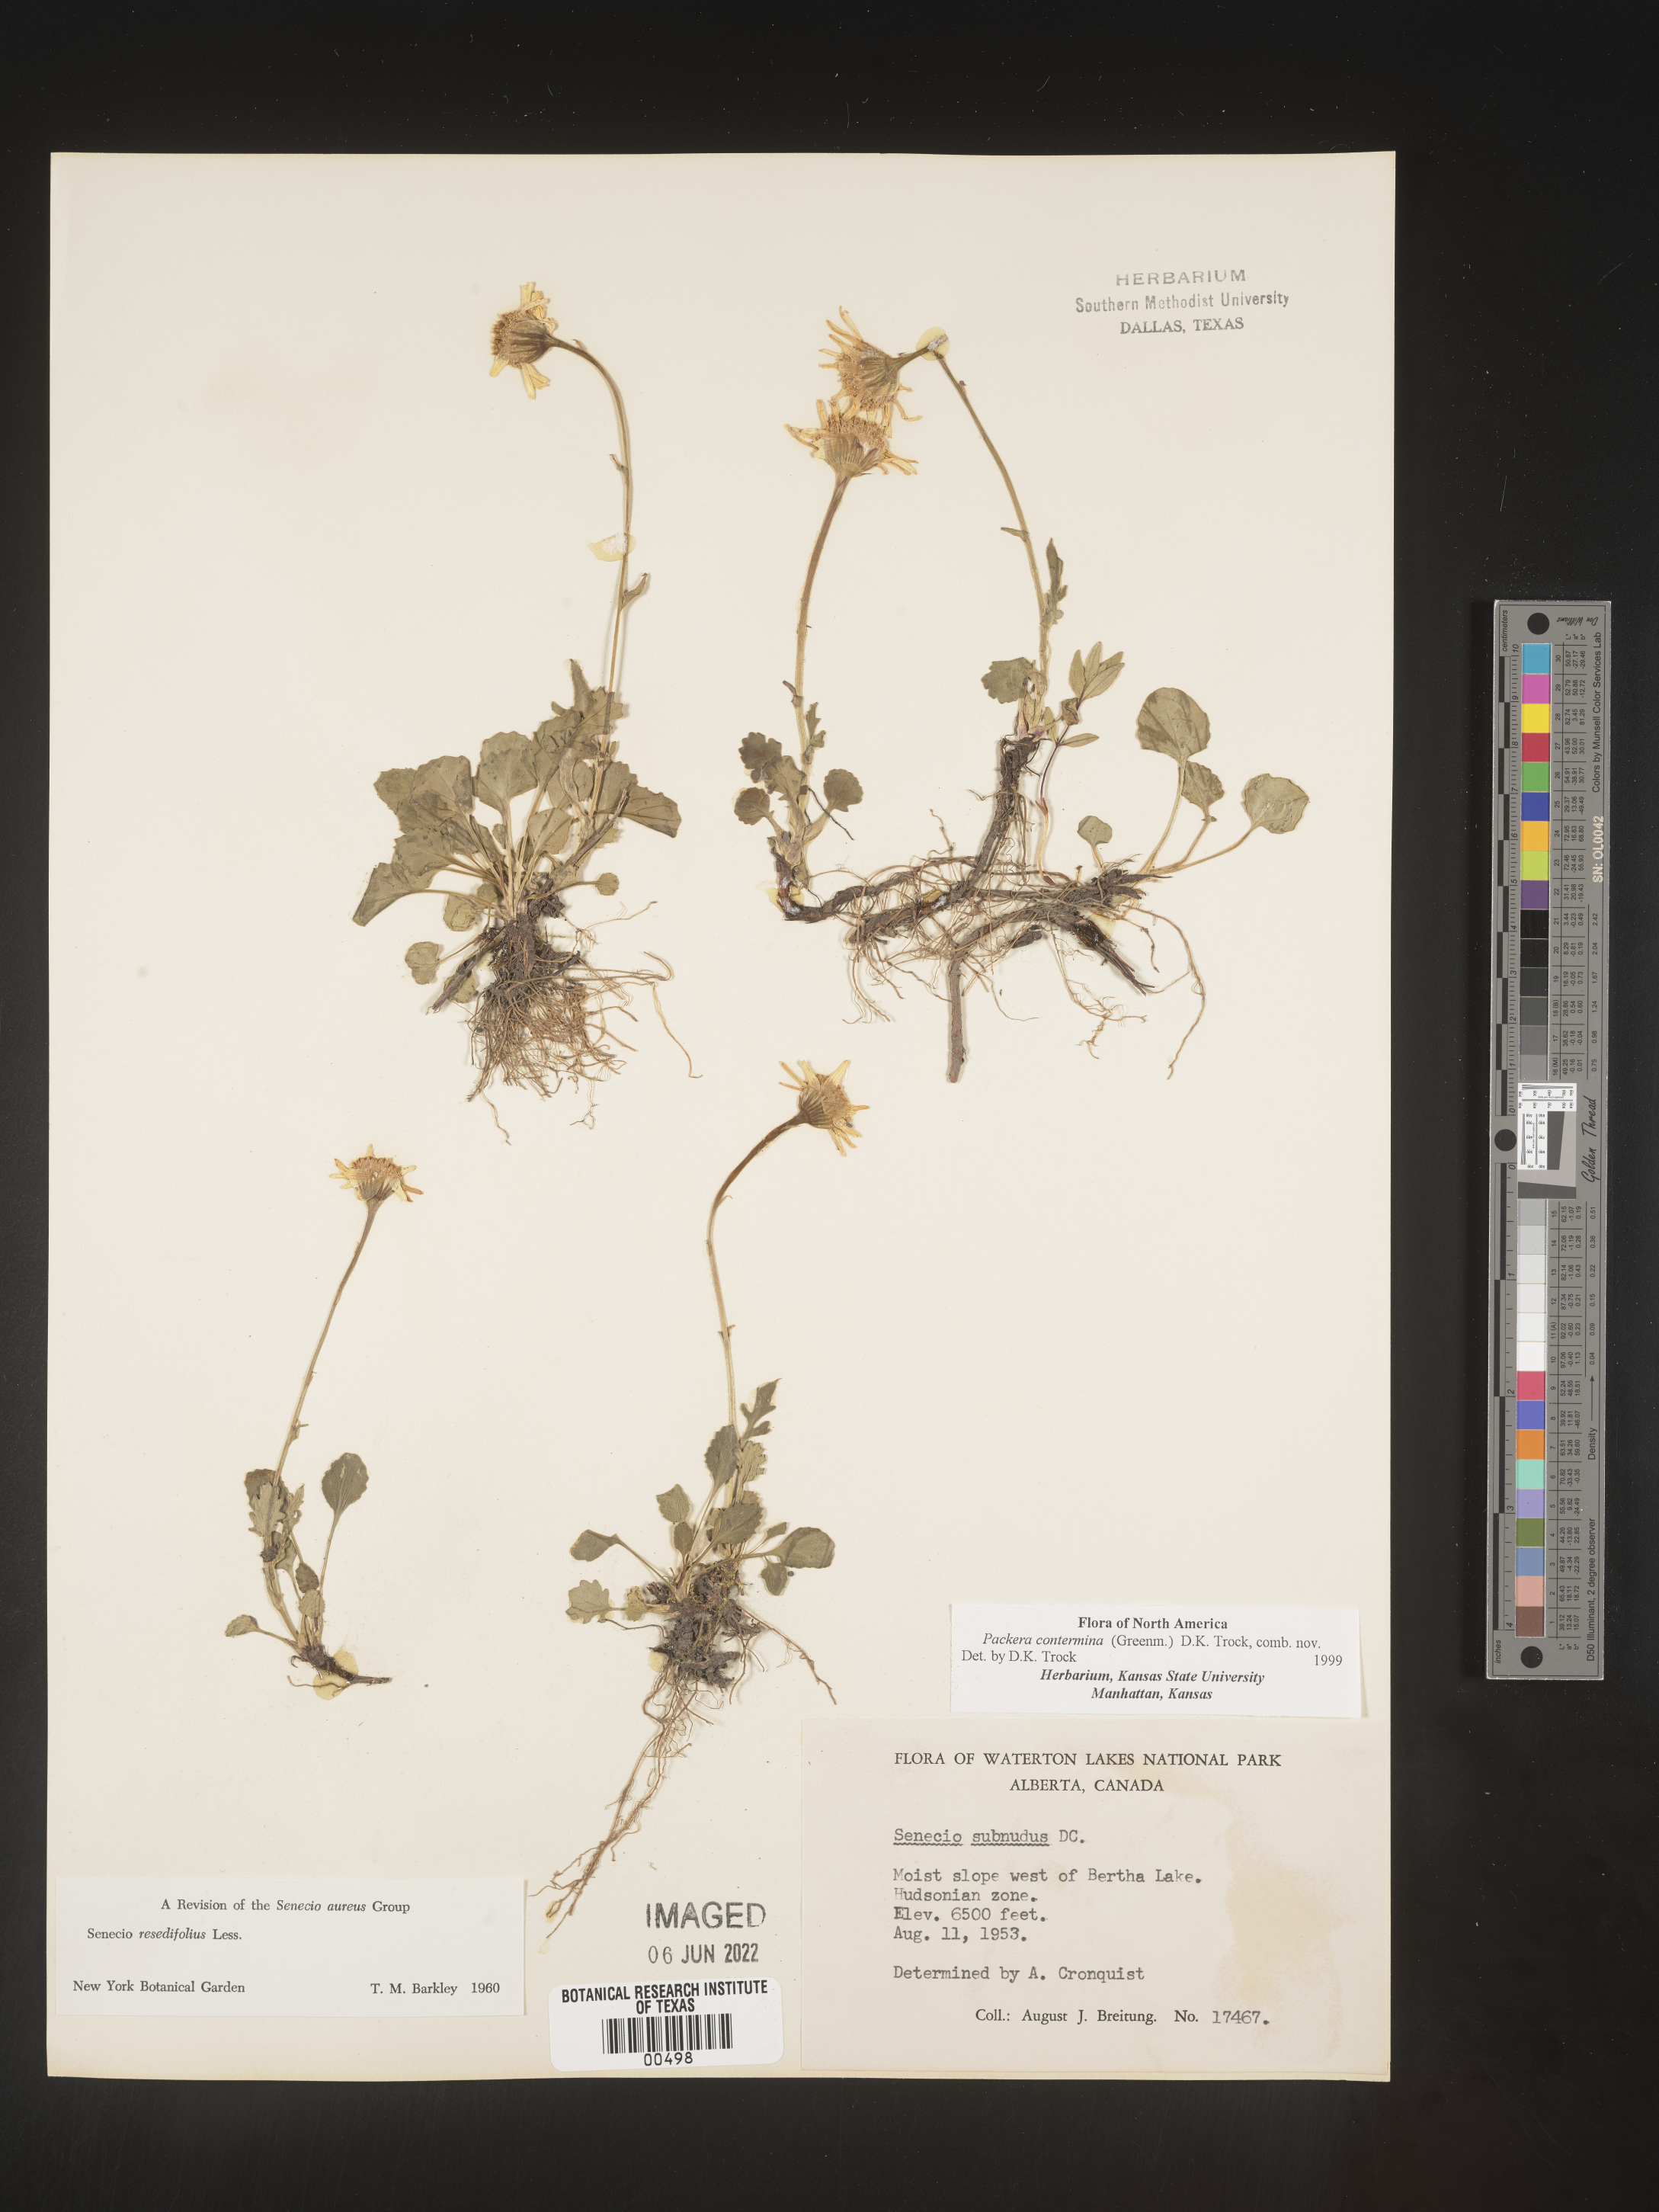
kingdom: Plantae
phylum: Tracheophyta
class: Magnoliopsida
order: Asterales
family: Asteraceae
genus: Packera
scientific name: Packera
